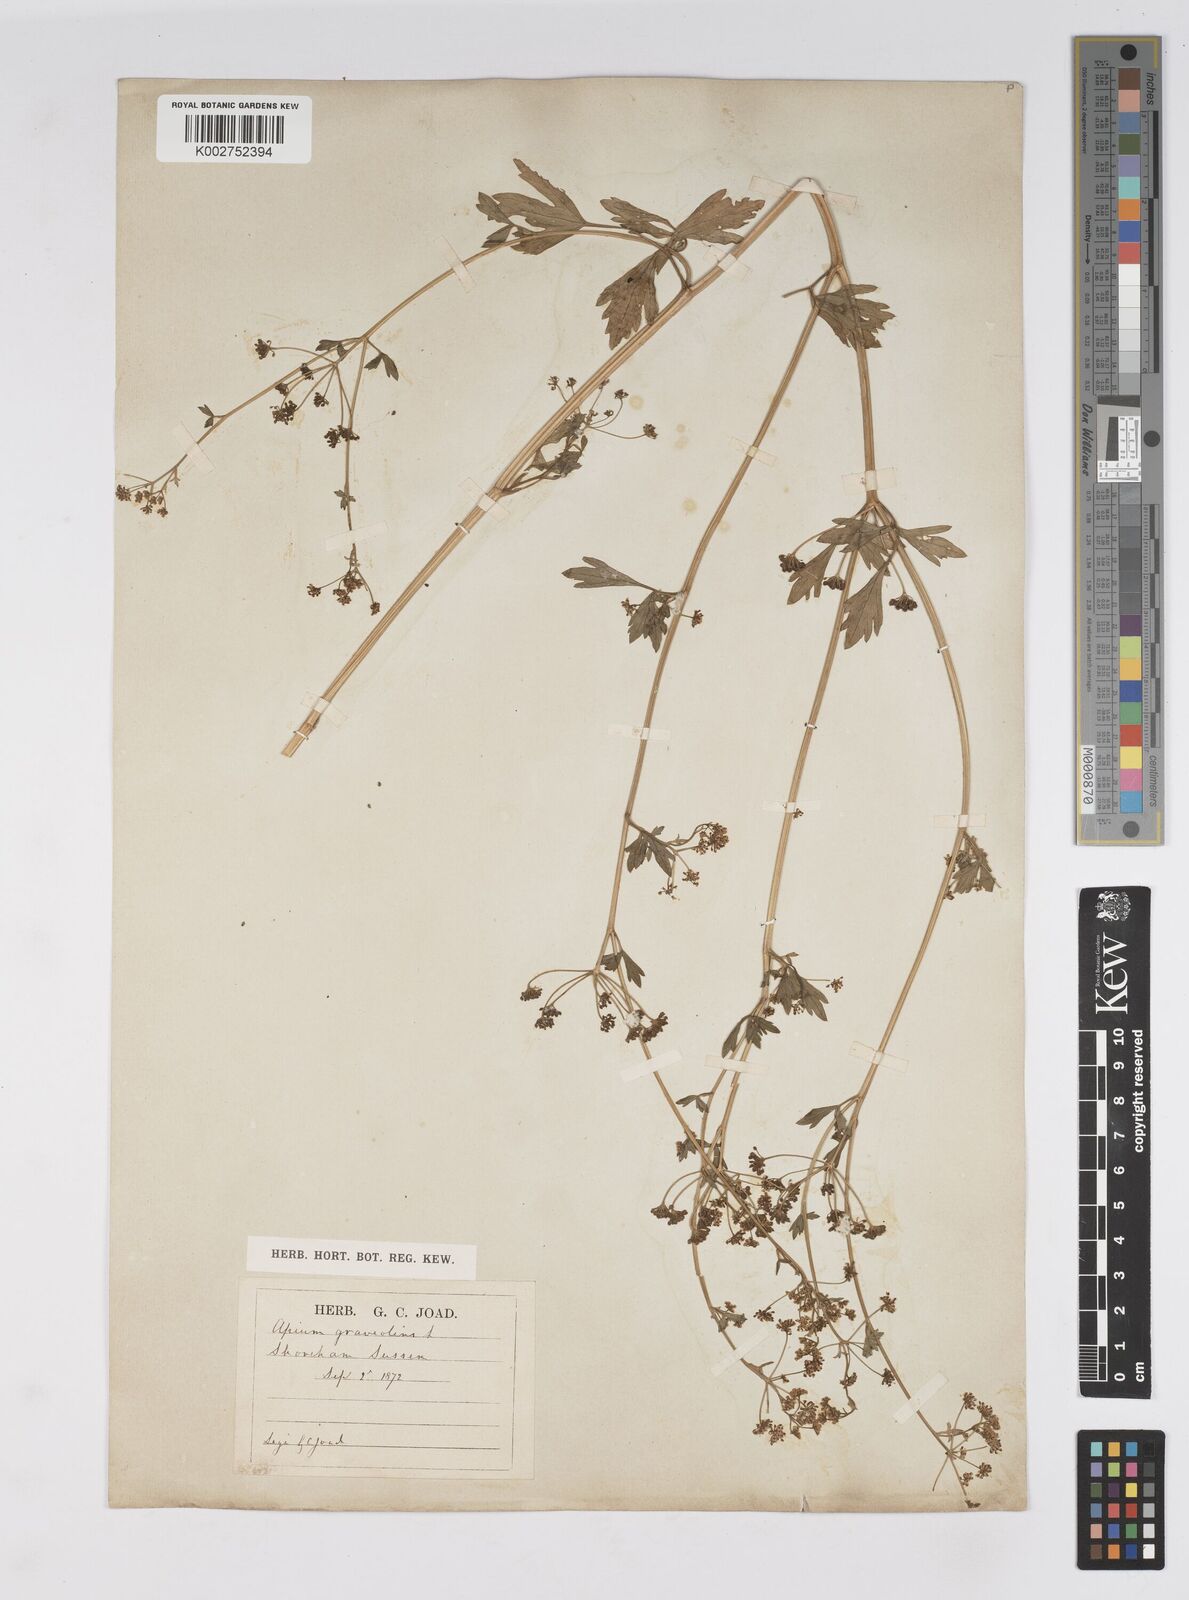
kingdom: Plantae
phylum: Tracheophyta
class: Magnoliopsida
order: Apiales
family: Apiaceae
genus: Apium
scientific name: Apium graveolens
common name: Wild celery
